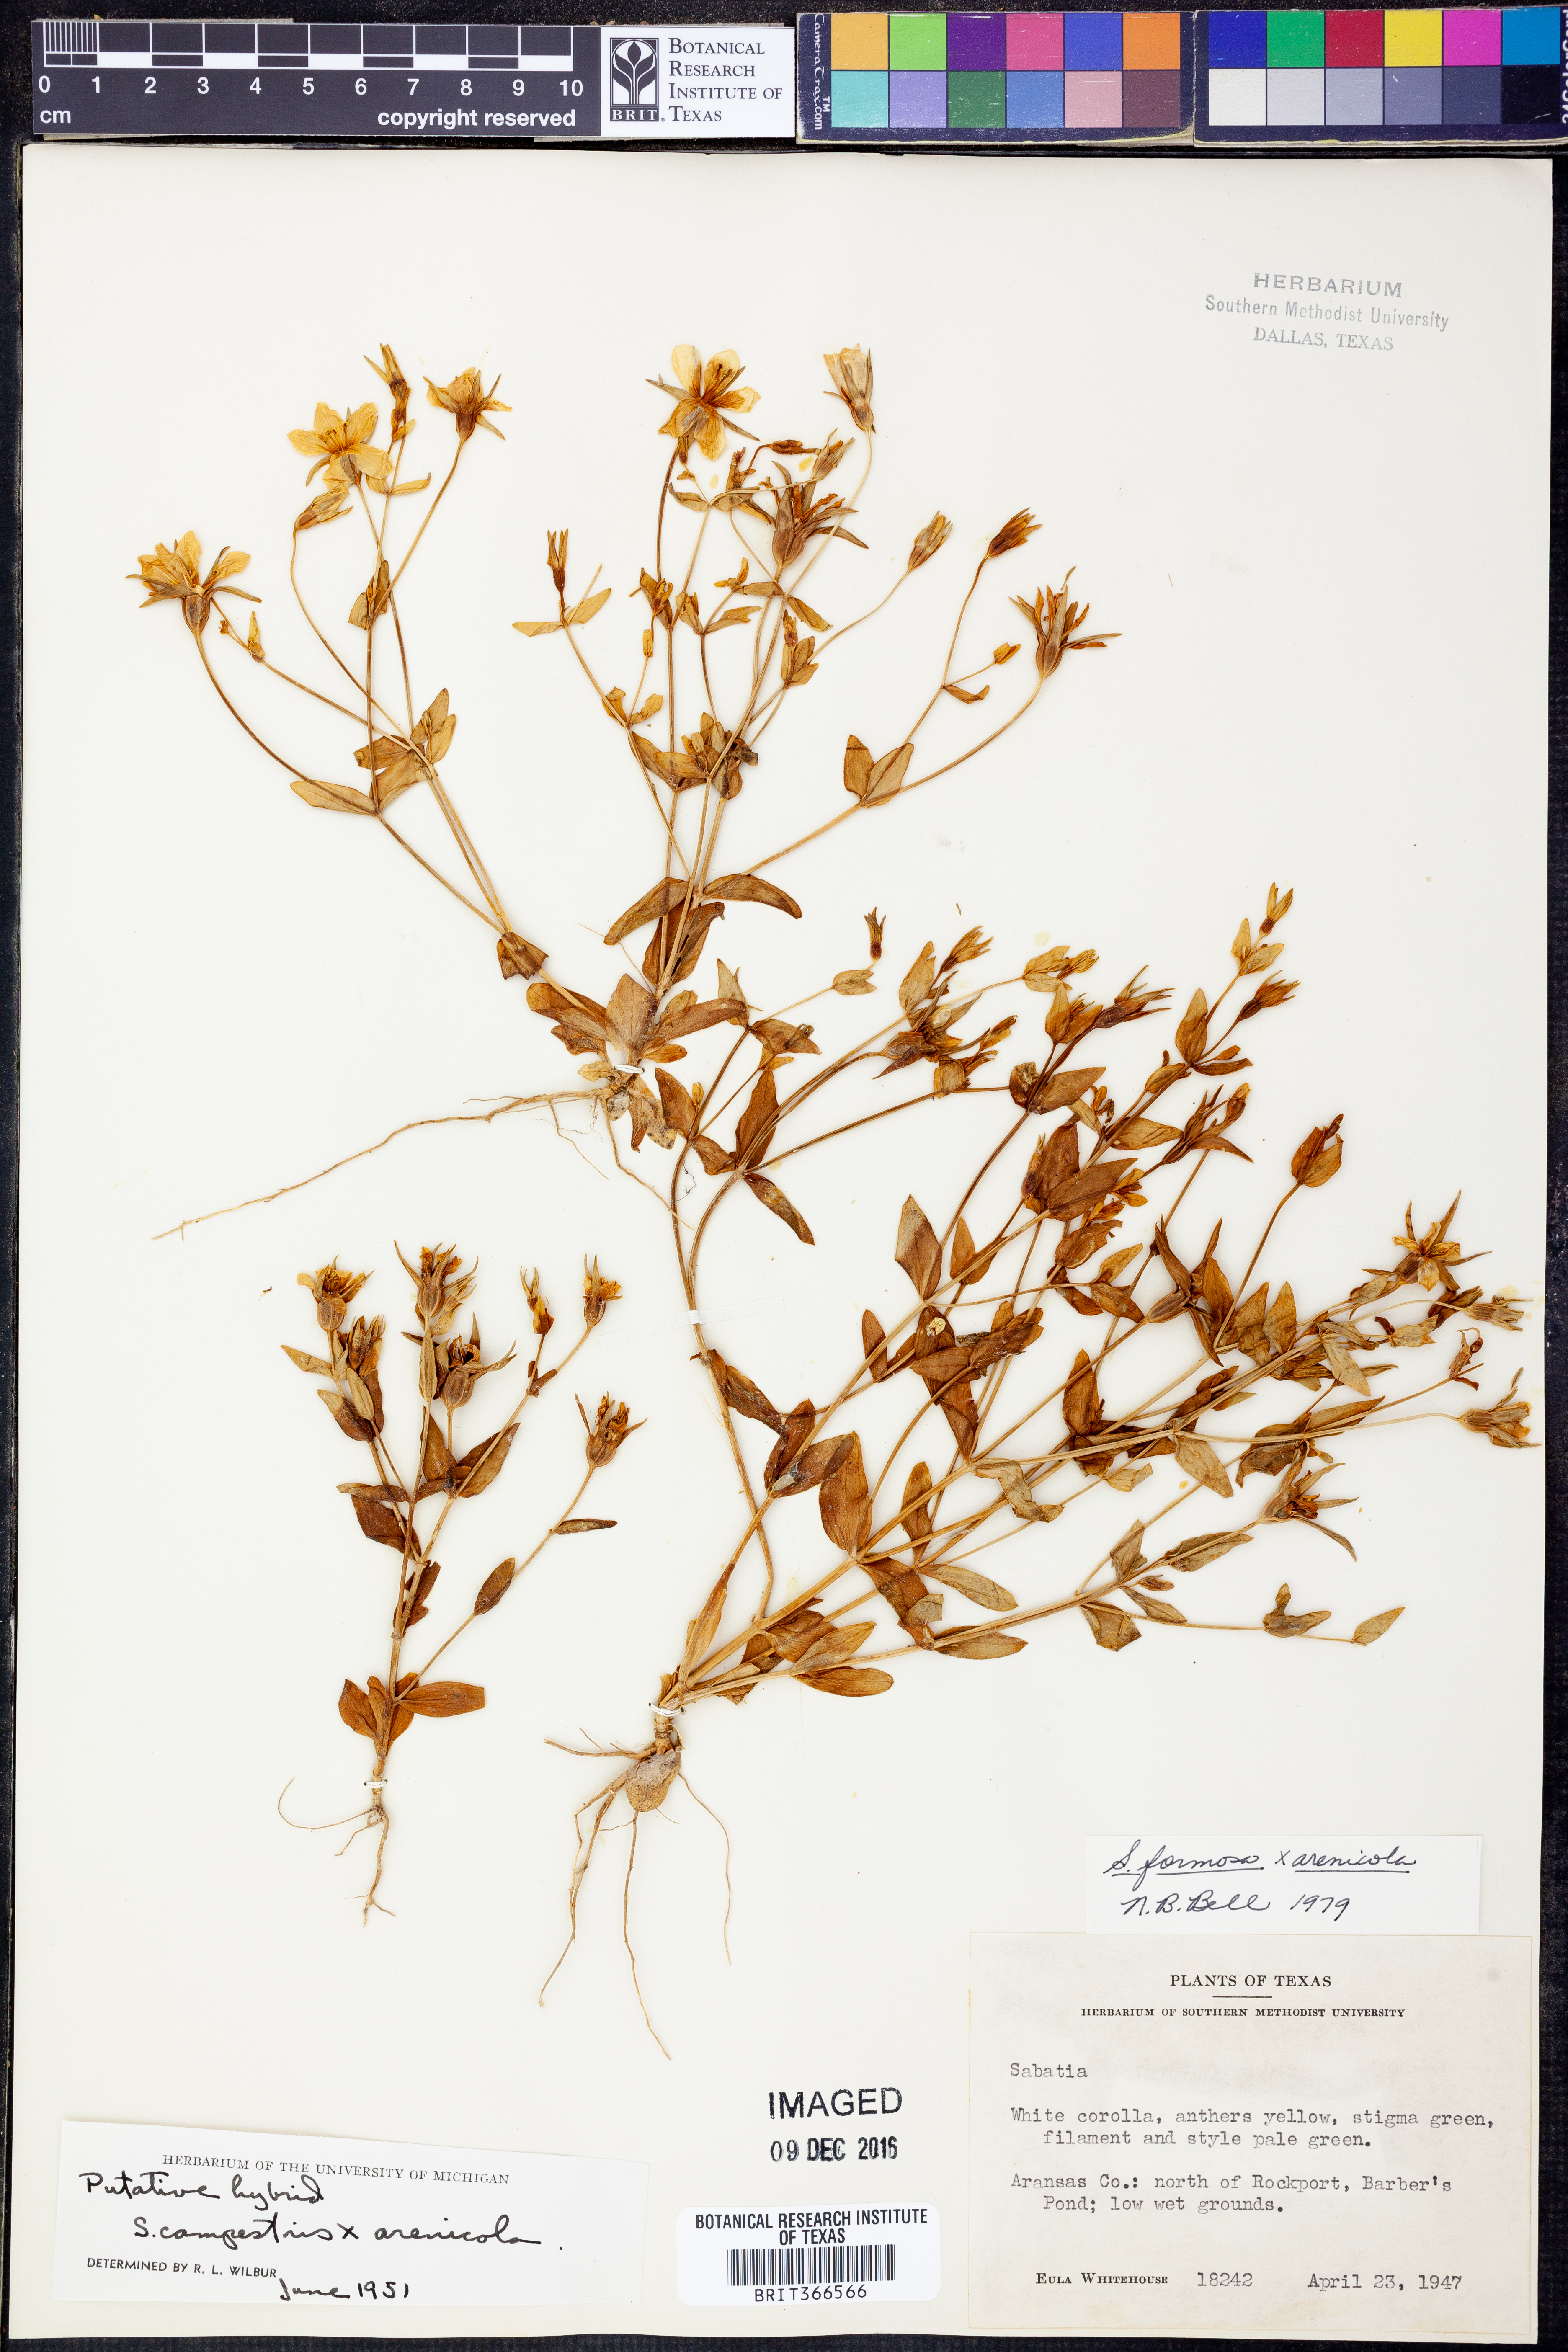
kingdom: Plantae
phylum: Tracheophyta
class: Magnoliopsida
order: Gentianales
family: Gentianaceae
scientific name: Gentianaceae
